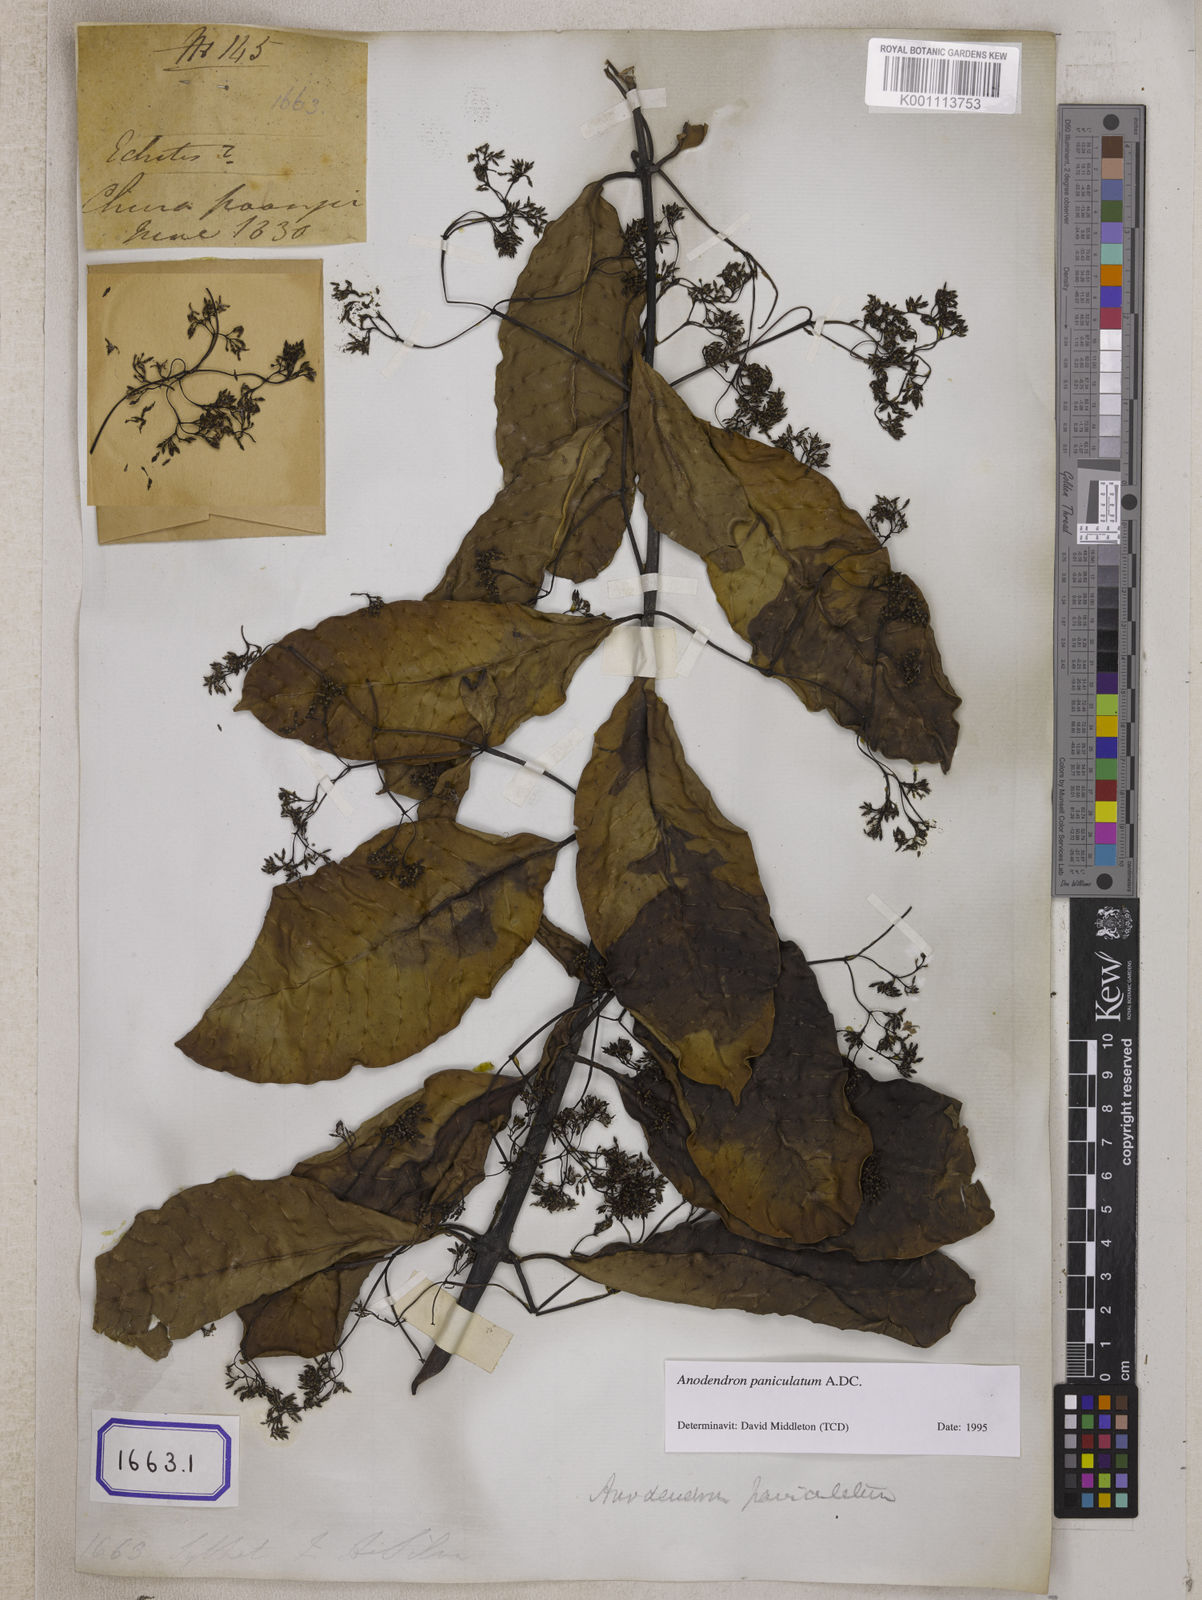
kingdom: Plantae
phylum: Tracheophyta
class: Magnoliopsida
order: Gentianales
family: Apocynaceae
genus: Echites
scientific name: Echites
